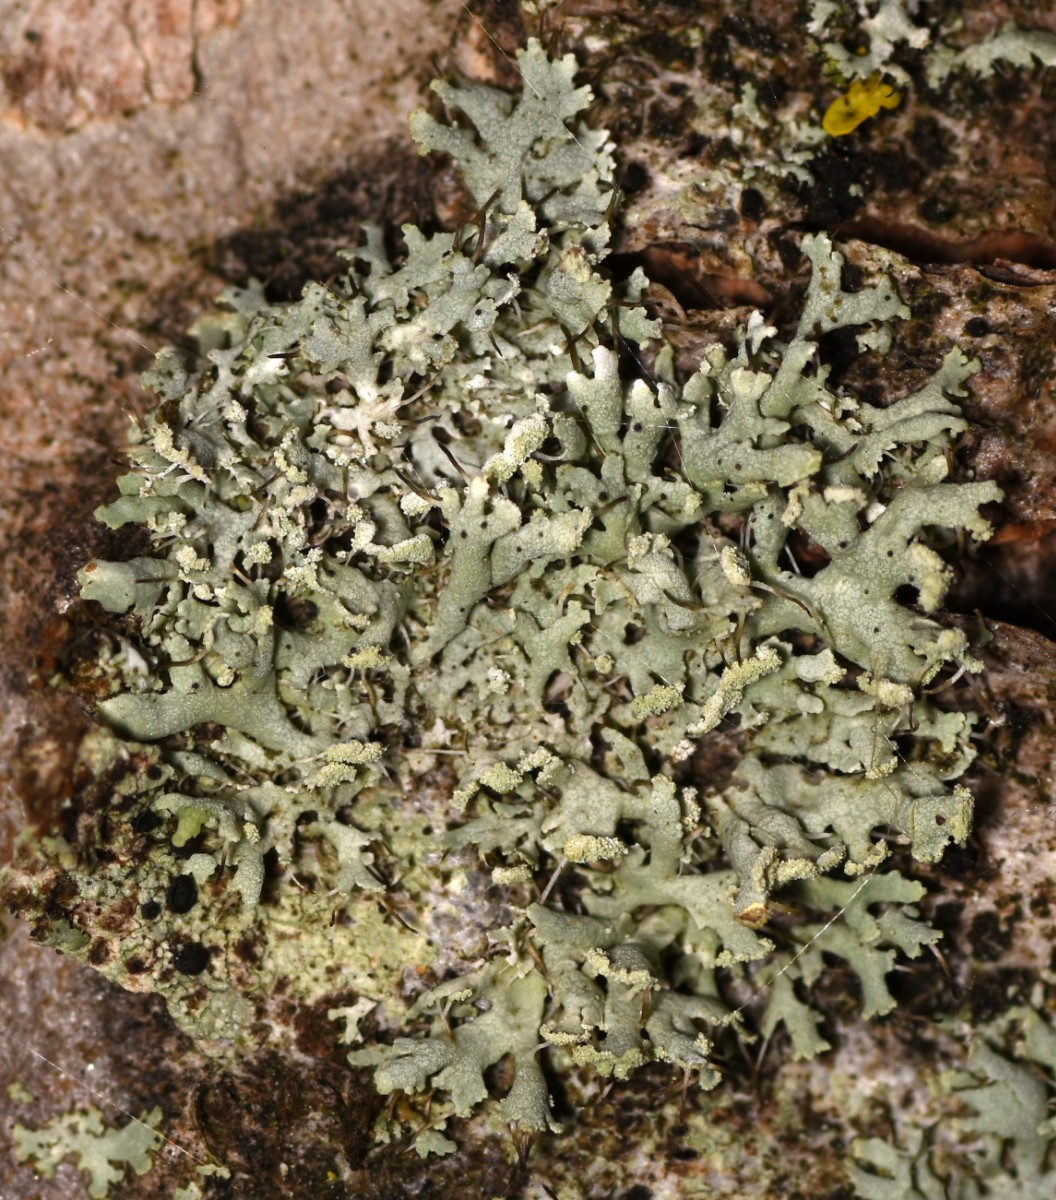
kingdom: Fungi
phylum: Ascomycota
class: Lecanoromycetes
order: Caliciales
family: Physciaceae
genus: Physcia
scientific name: Physcia tenella
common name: spæd rosetlav
